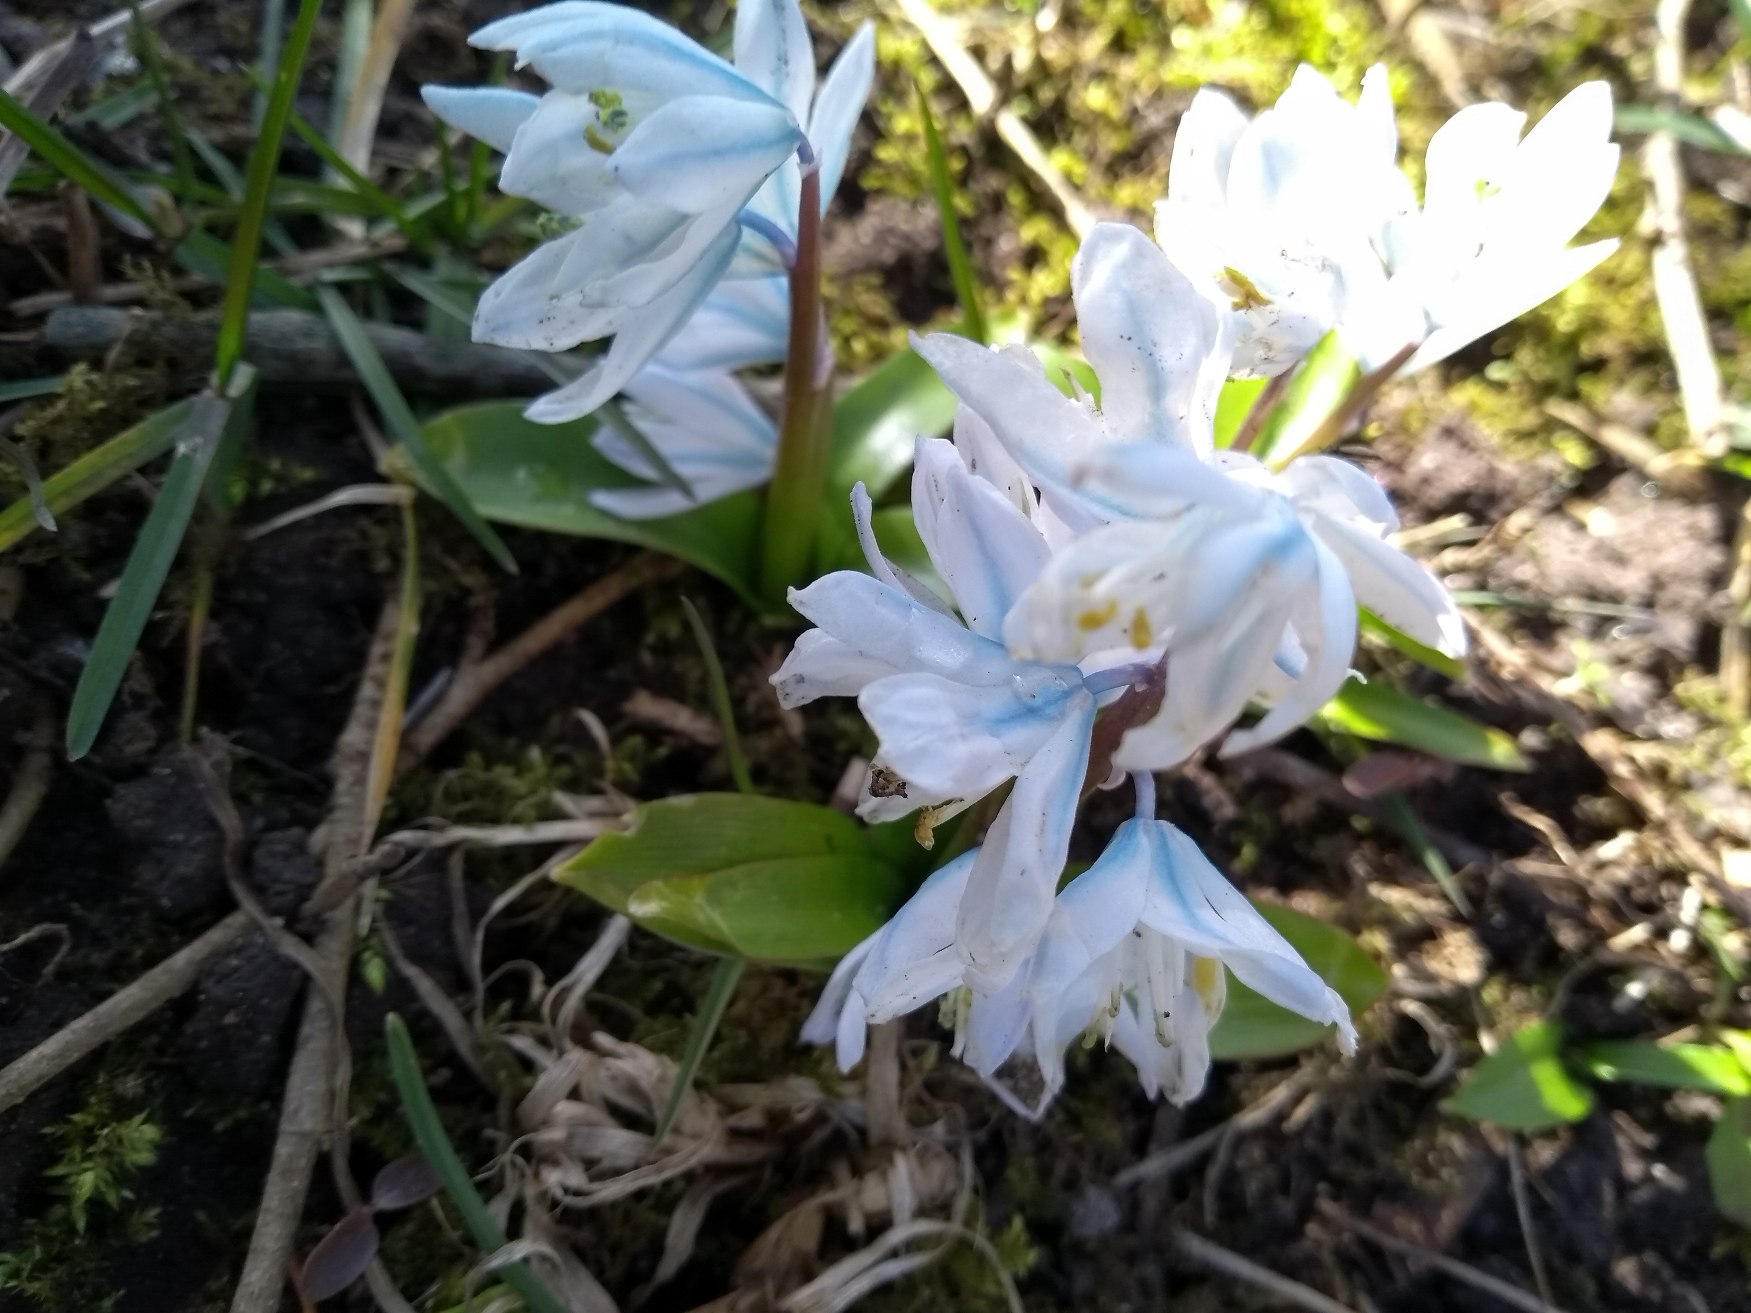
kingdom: Plantae
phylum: Tracheophyta
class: Liliopsida
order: Asparagales
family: Asparagaceae
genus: Scilla
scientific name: Scilla mischtschenkoana
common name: Persisk skilla
